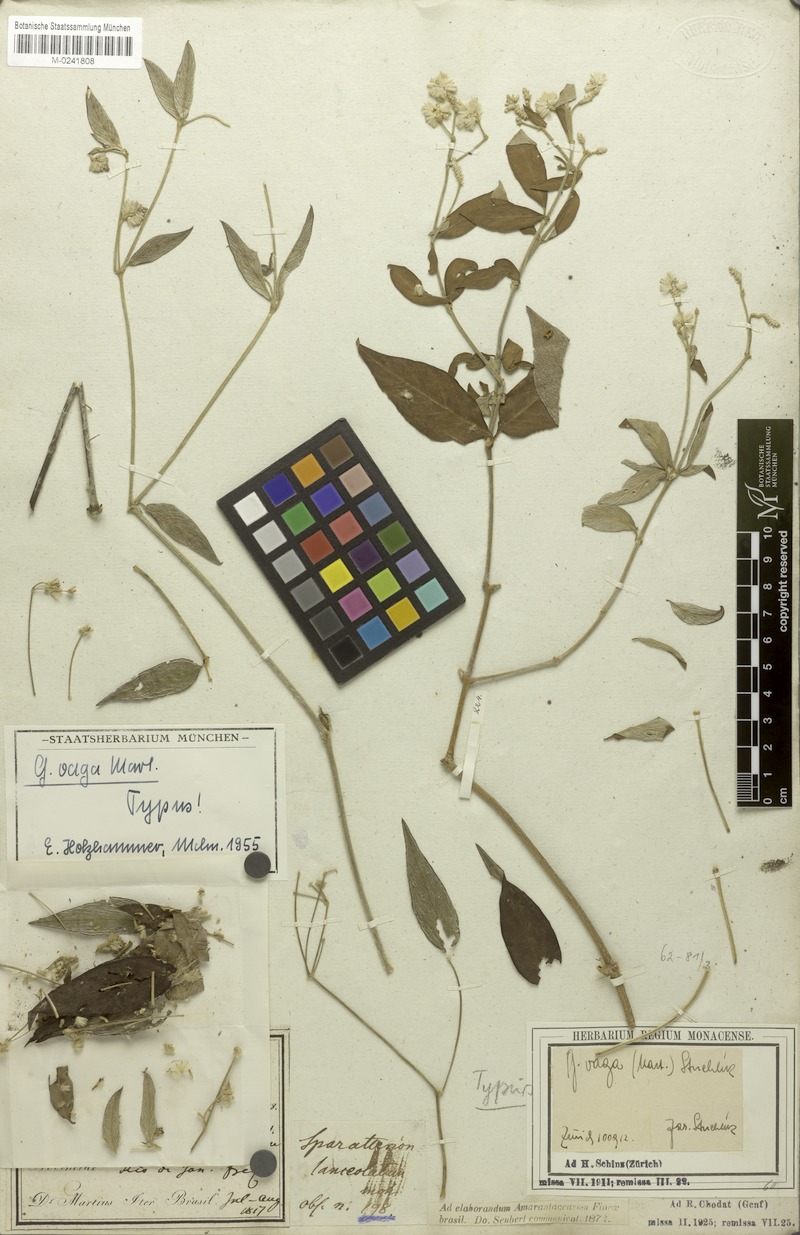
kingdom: Plantae
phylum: Tracheophyta
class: Magnoliopsida
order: Caryophyllales
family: Amaranthaceae
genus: Gomphrena
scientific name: Gomphrena vaga
